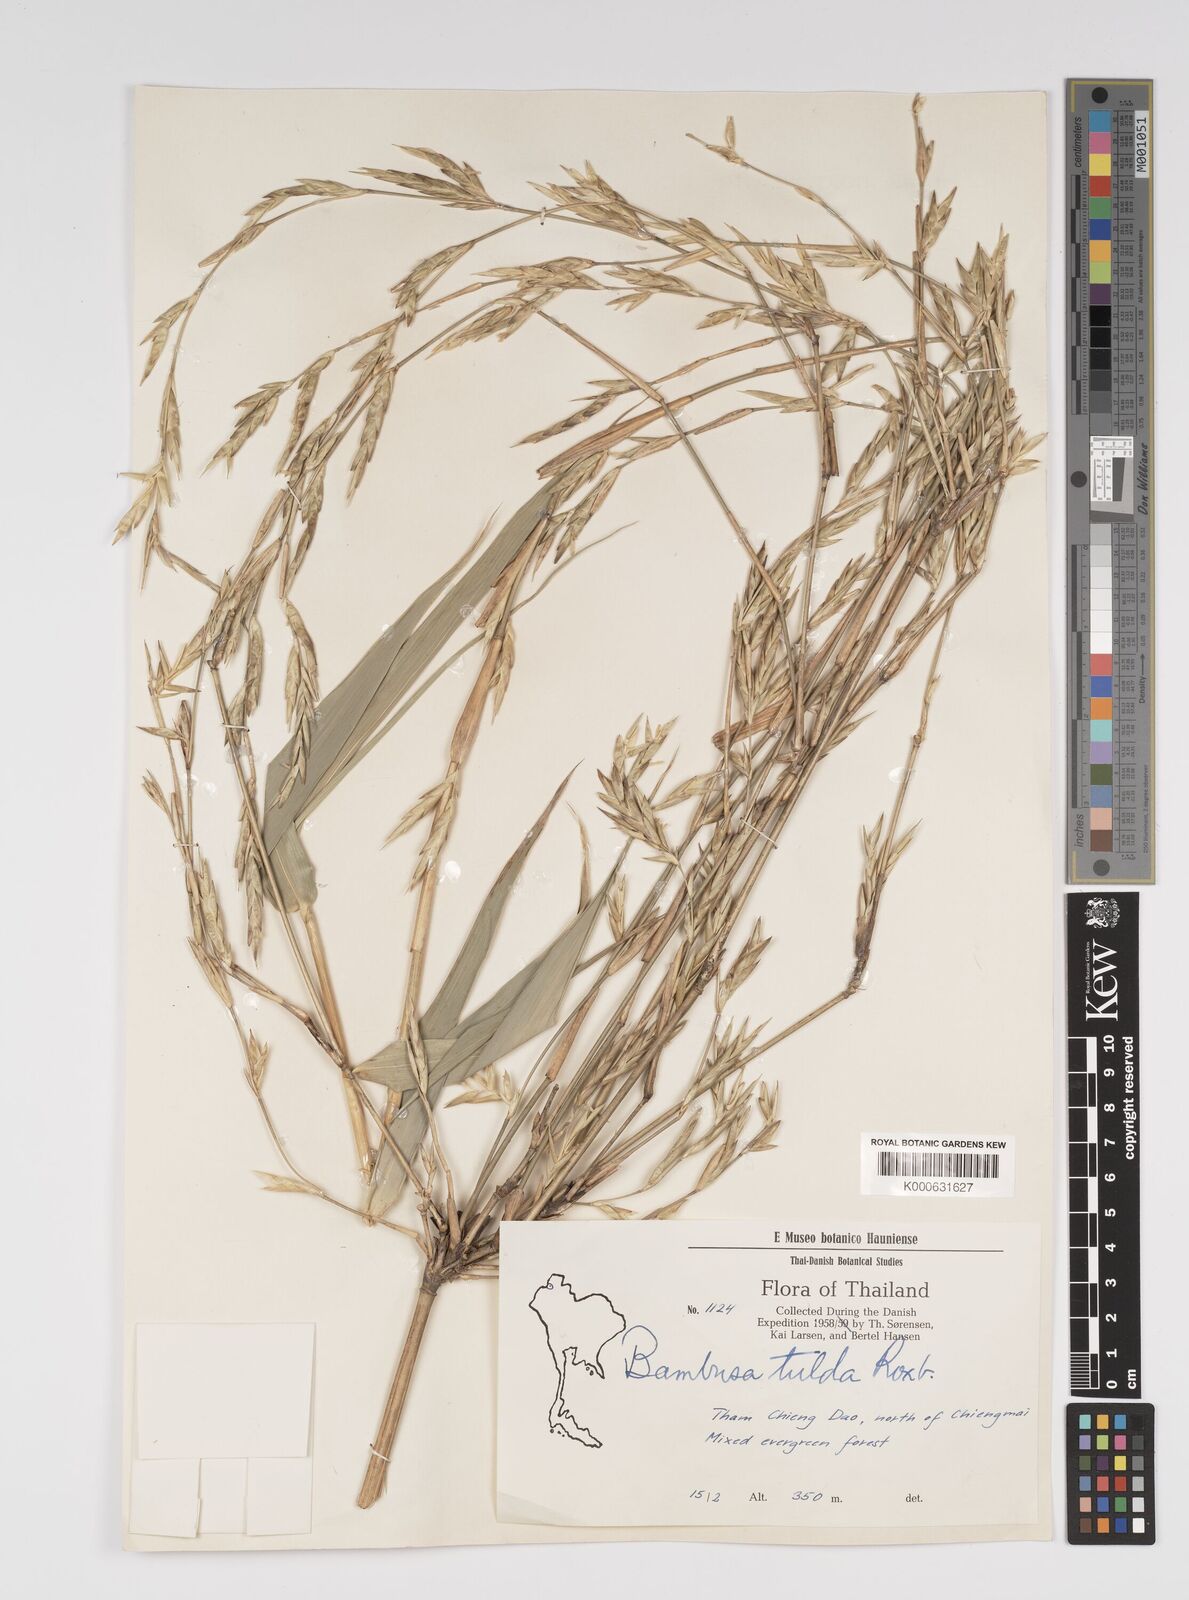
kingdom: Plantae
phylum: Tracheophyta
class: Liliopsida
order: Poales
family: Poaceae
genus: Bambusa
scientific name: Bambusa tulda
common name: Bengal bamboo
